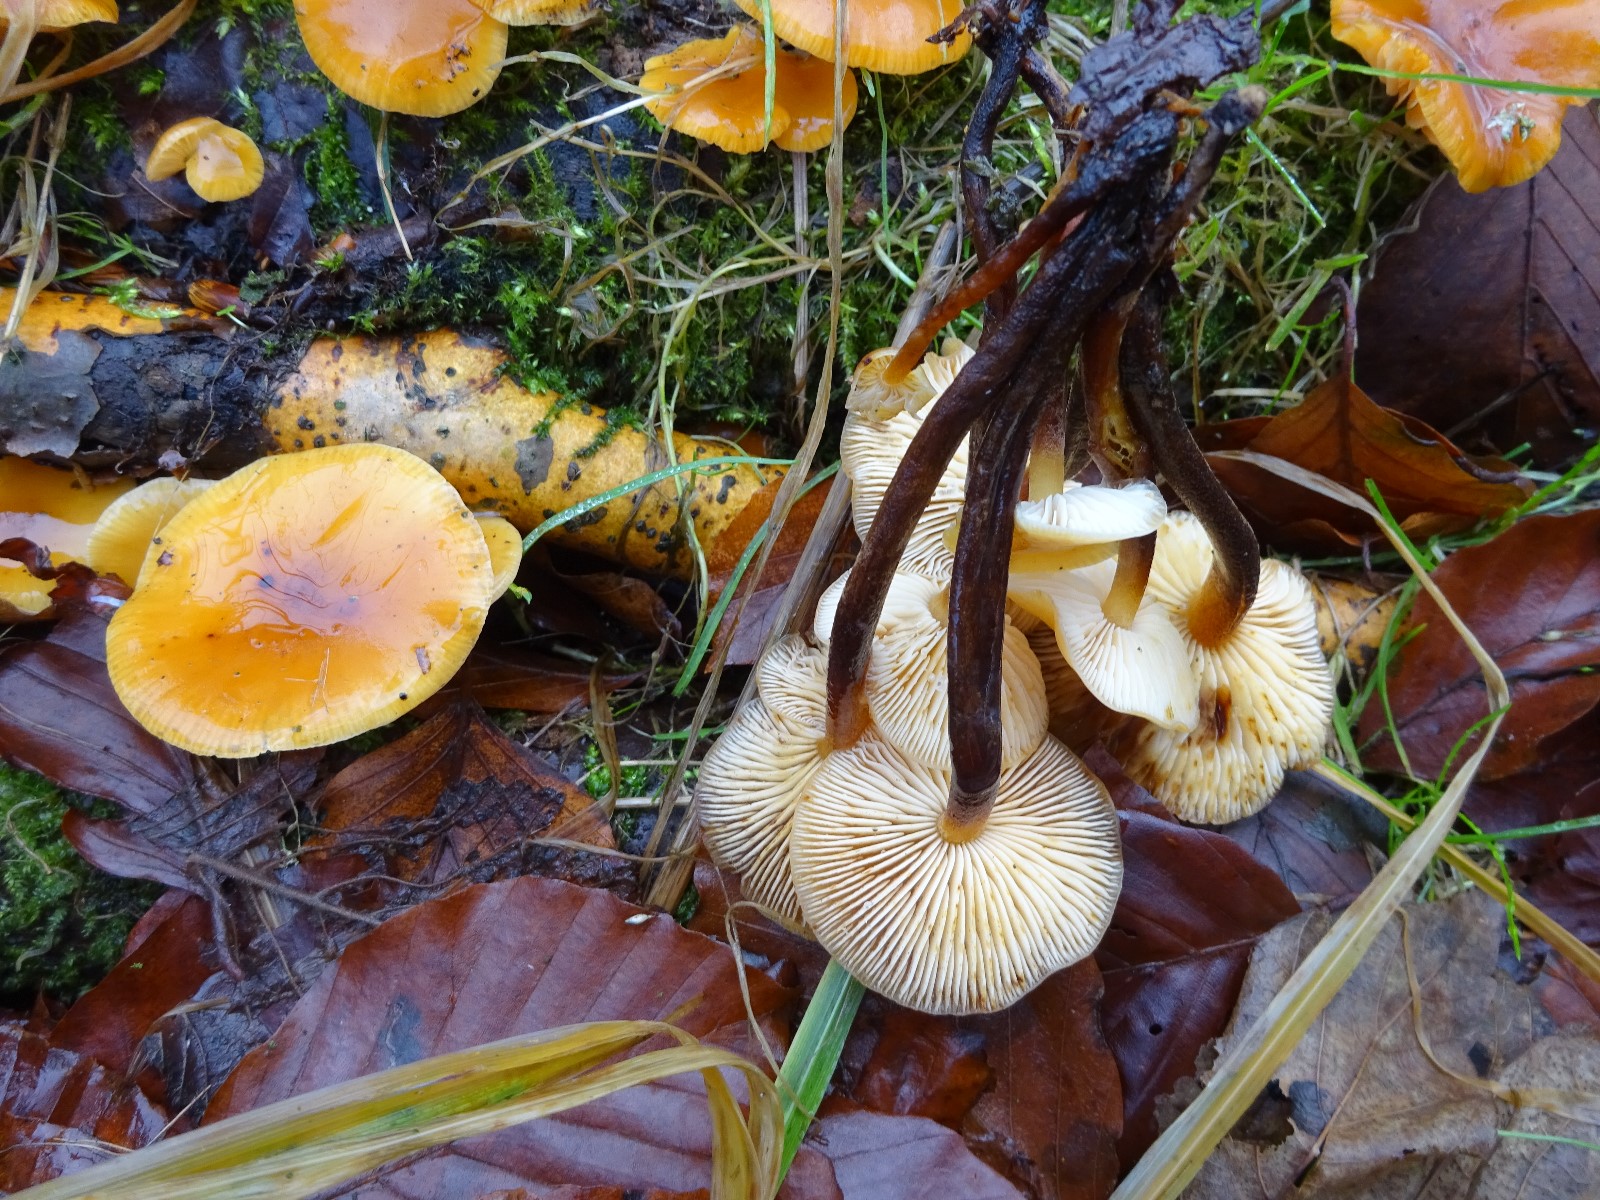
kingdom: Fungi
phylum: Basidiomycota
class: Agaricomycetes
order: Agaricales
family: Physalacriaceae
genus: Flammulina
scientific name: Flammulina velutipes
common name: gul fløjlsfod
